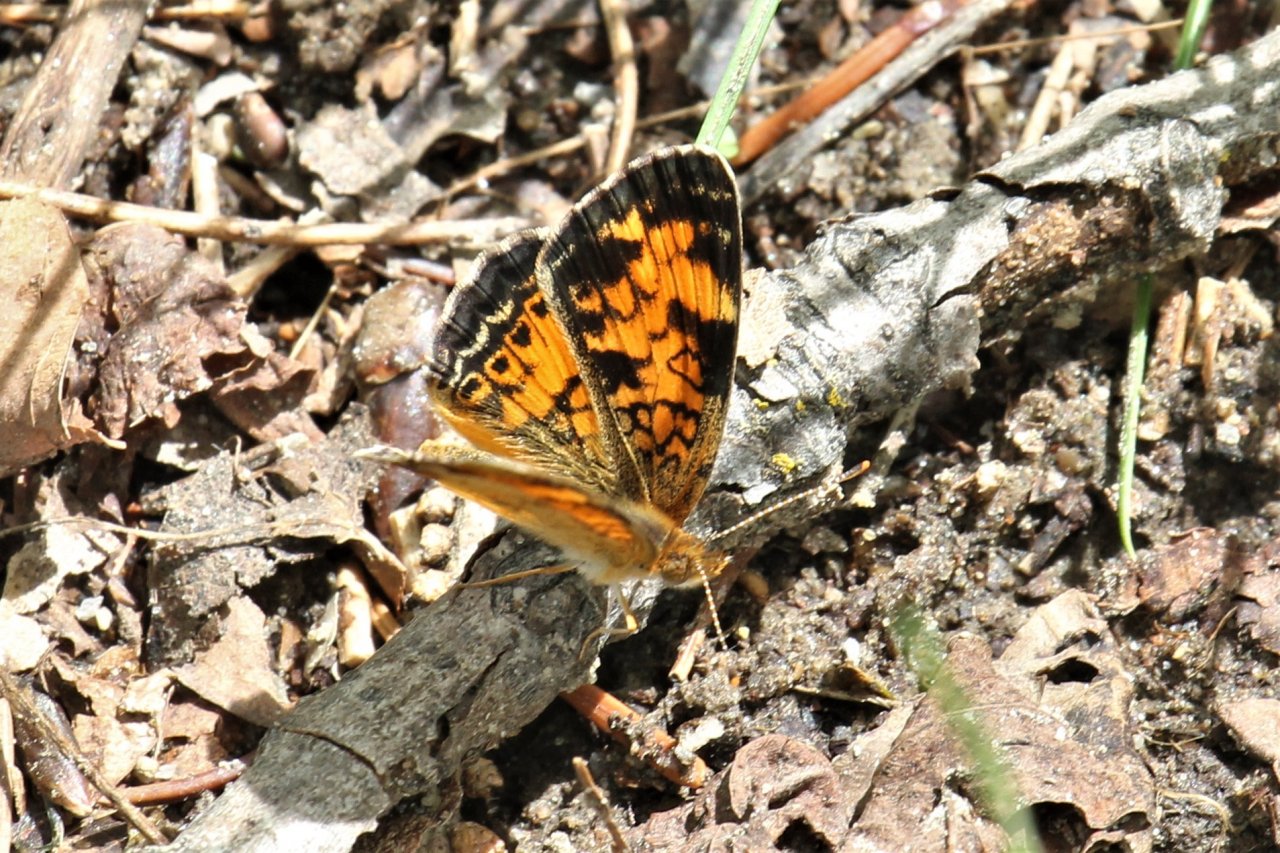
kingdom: Animalia
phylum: Arthropoda
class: Insecta
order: Lepidoptera
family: Nymphalidae
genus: Phyciodes
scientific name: Phyciodes tharos
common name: Northern Crescent
